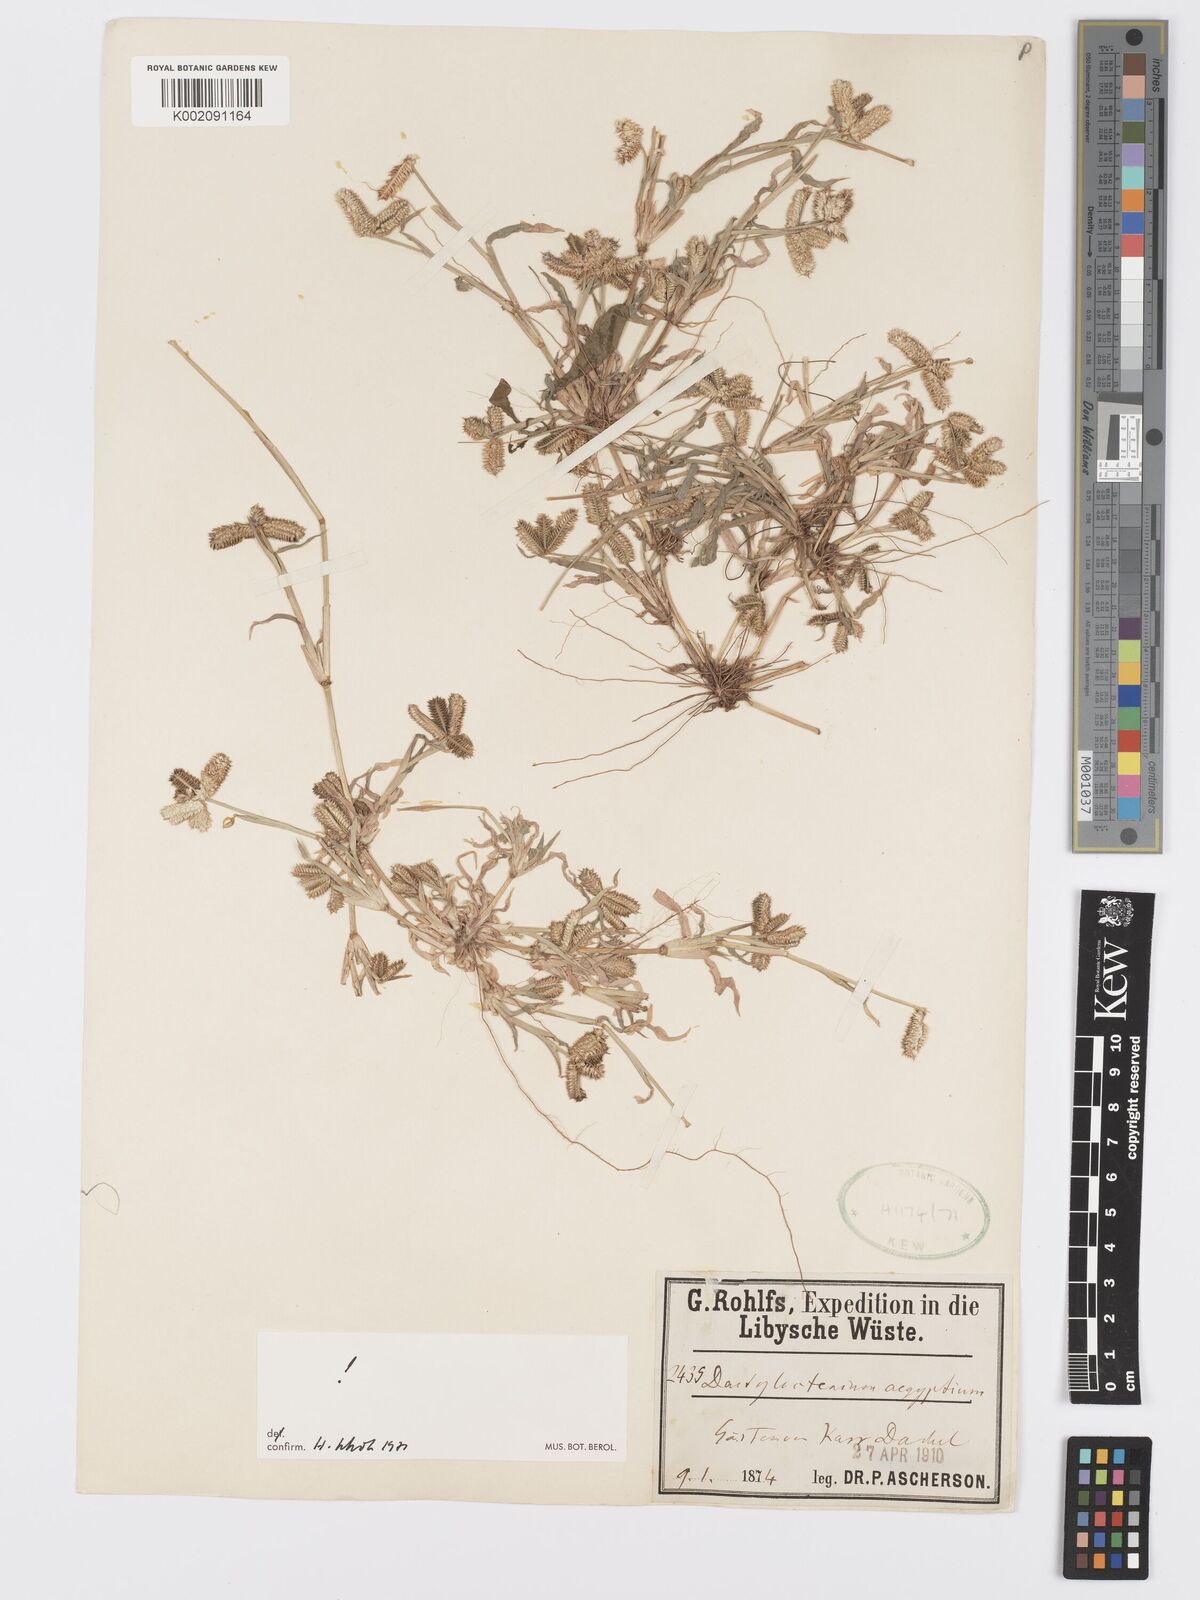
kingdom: Plantae
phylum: Tracheophyta
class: Liliopsida
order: Poales
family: Poaceae
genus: Dactyloctenium
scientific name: Dactyloctenium aegyptium
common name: Egyptian grass
